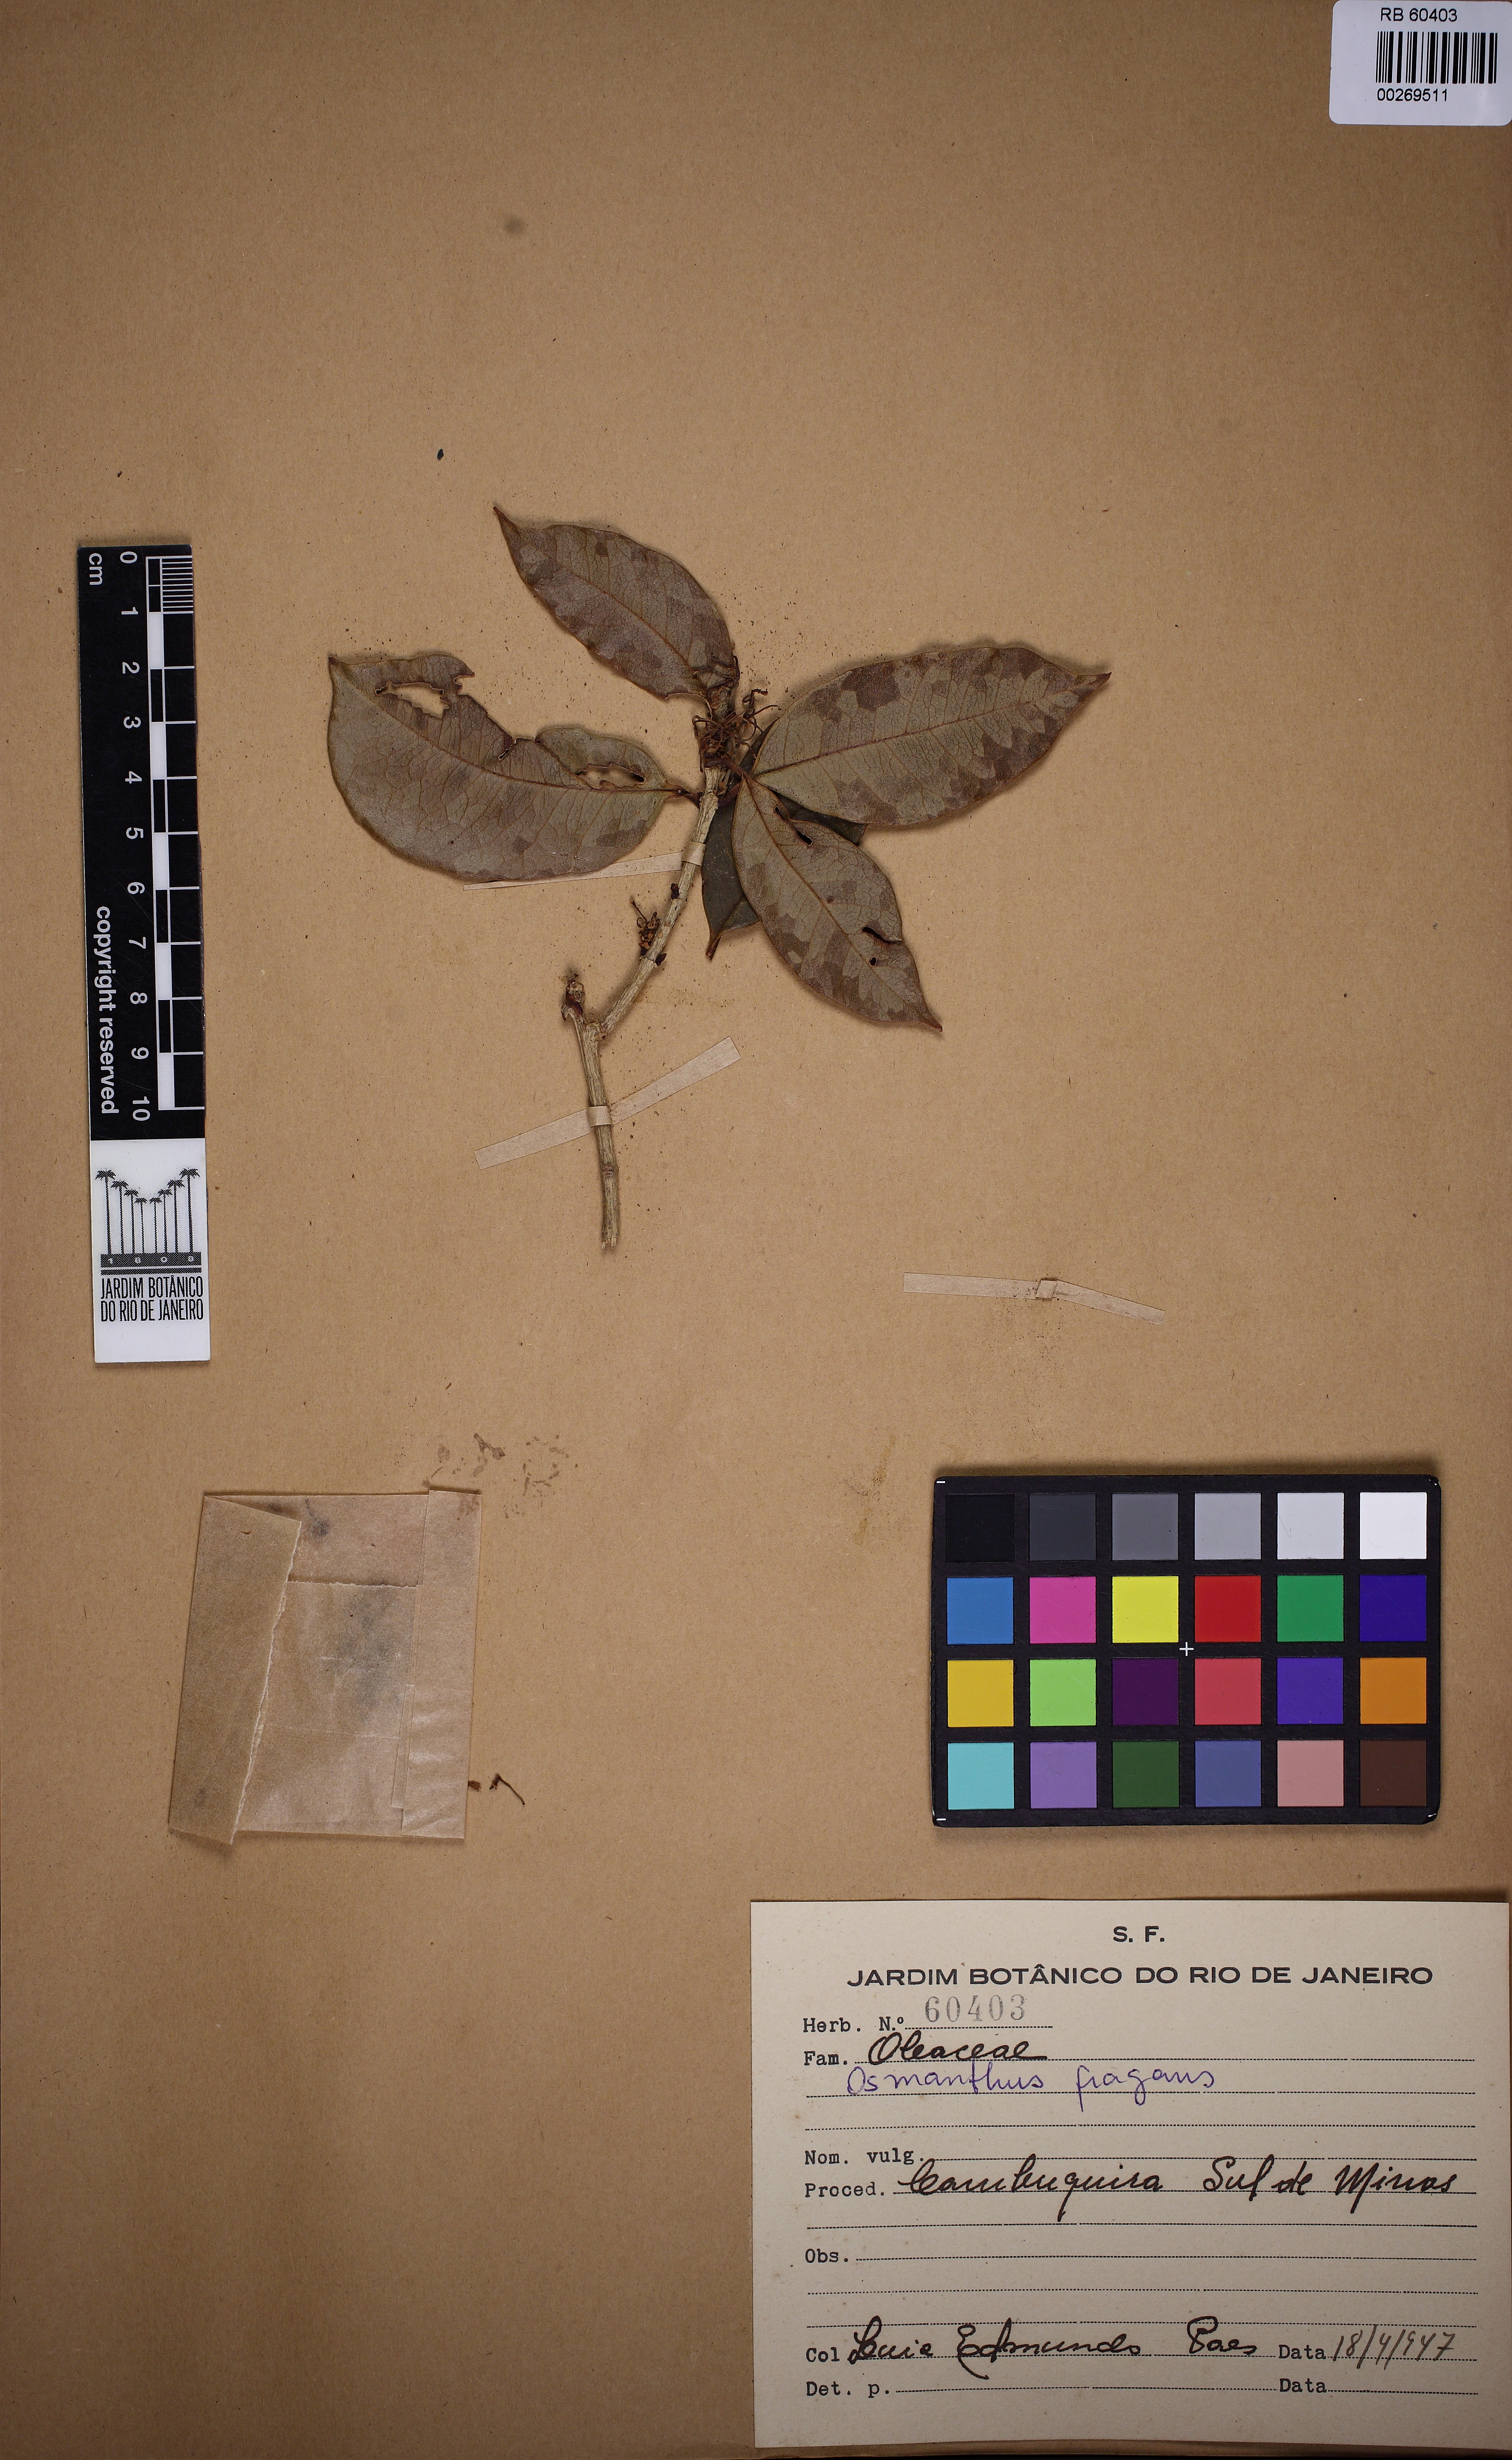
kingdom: Plantae
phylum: Tracheophyta
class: Magnoliopsida
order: Lamiales
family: Oleaceae
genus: Osmanthus
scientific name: Osmanthus fragrans
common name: Sweet osmanthus
